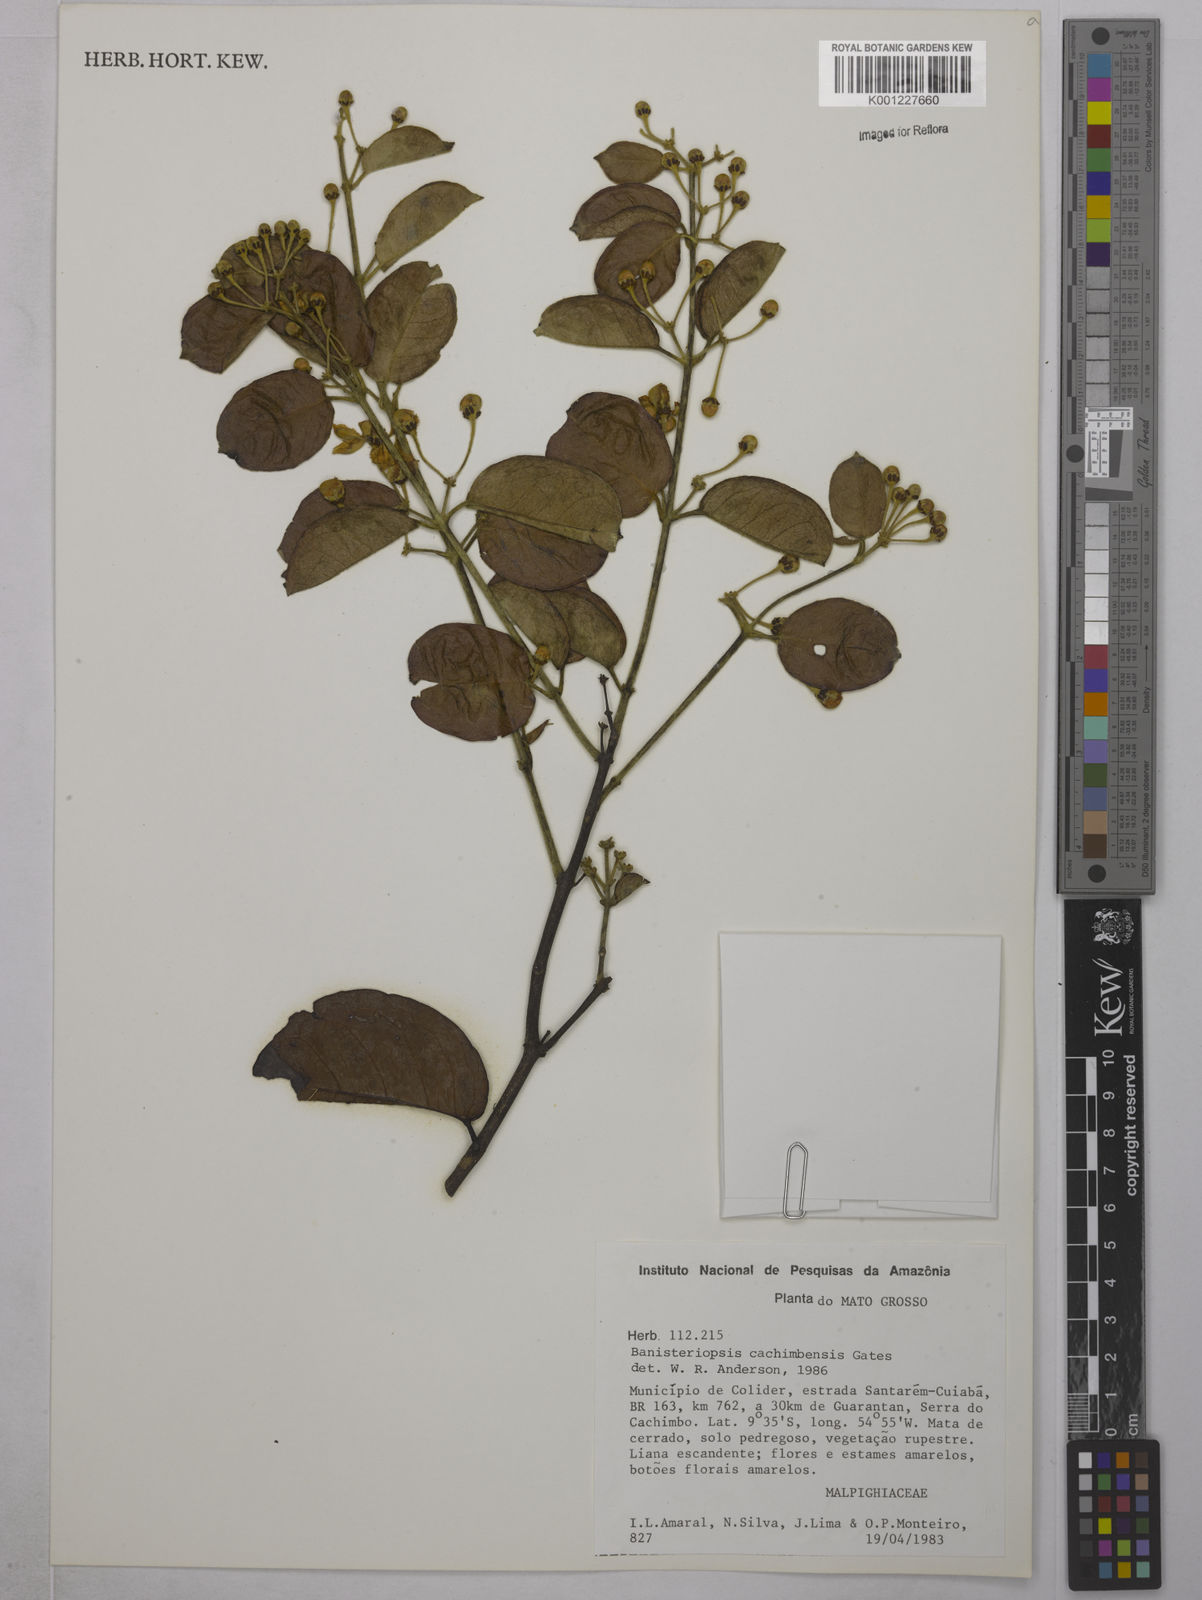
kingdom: Plantae
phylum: Tracheophyta
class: Magnoliopsida
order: Malpighiales
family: Malpighiaceae
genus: Diplopterys
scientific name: Diplopterys cachimbensis
